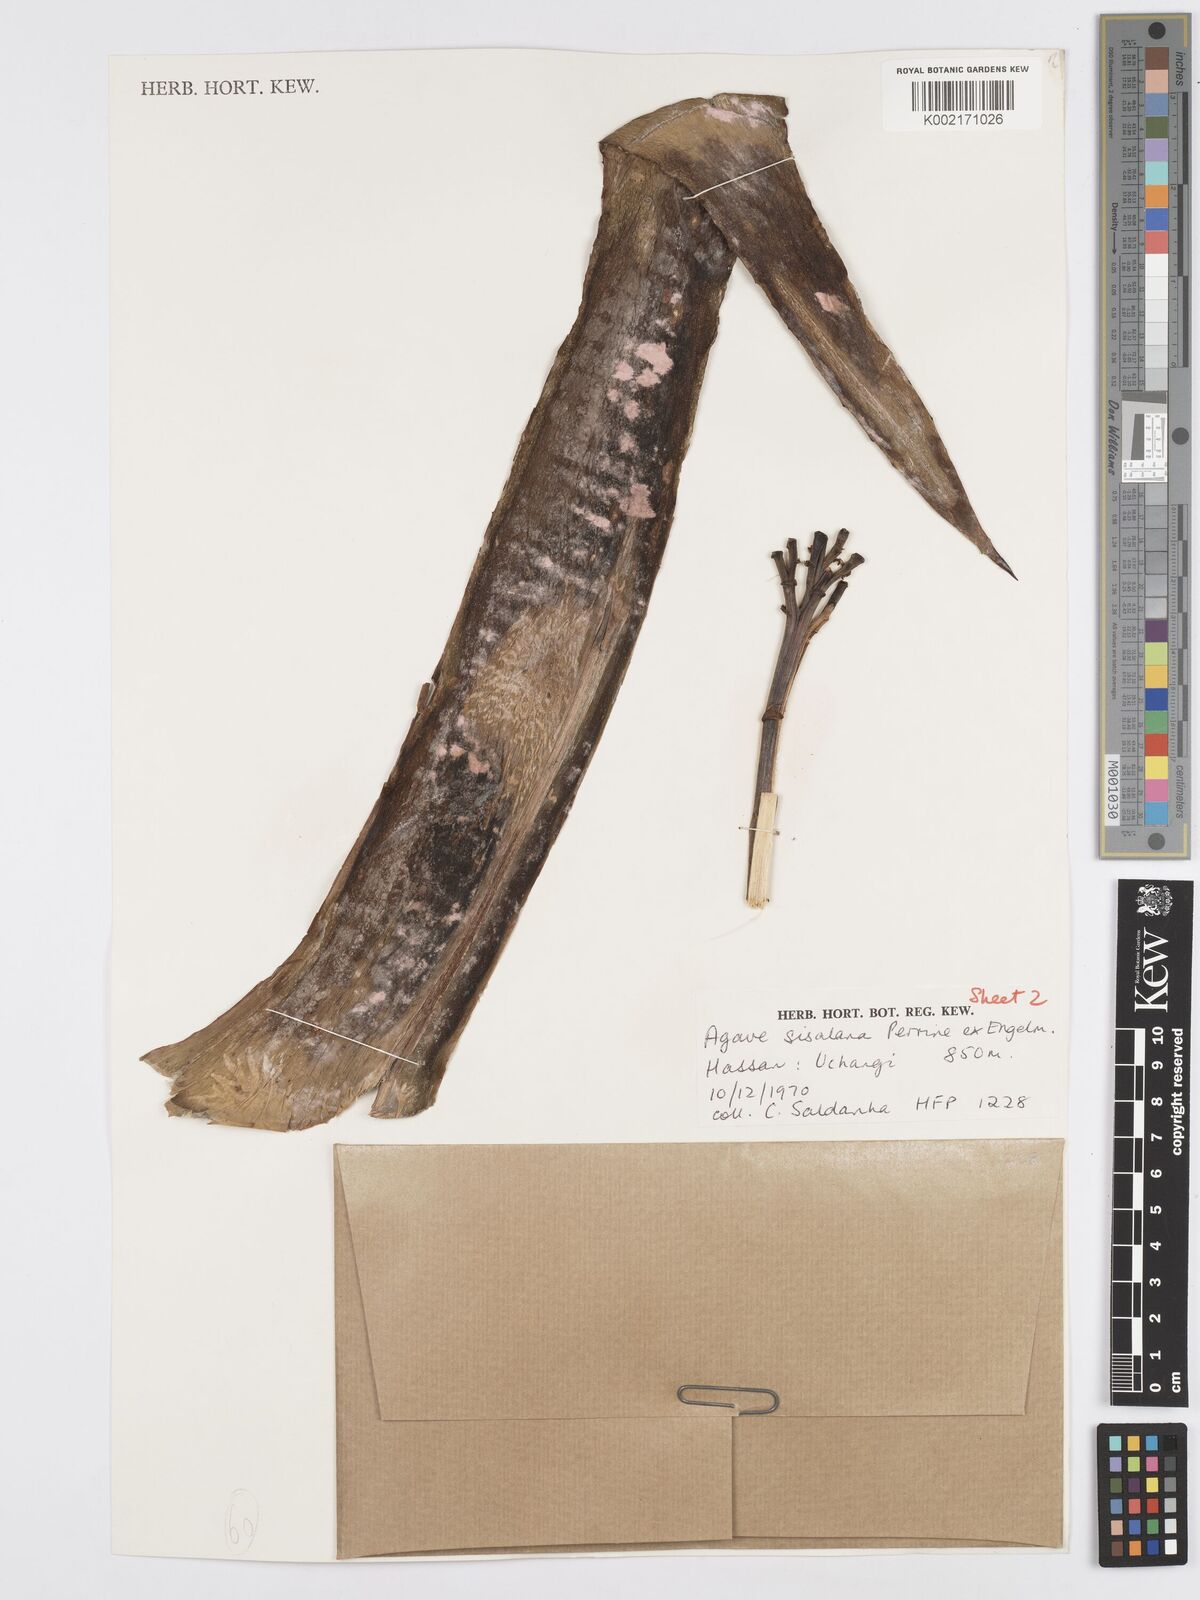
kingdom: Plantae
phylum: Tracheophyta
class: Liliopsida
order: Asparagales
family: Asparagaceae
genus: Agave
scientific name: Agave sisalana
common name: Sisal hemp
